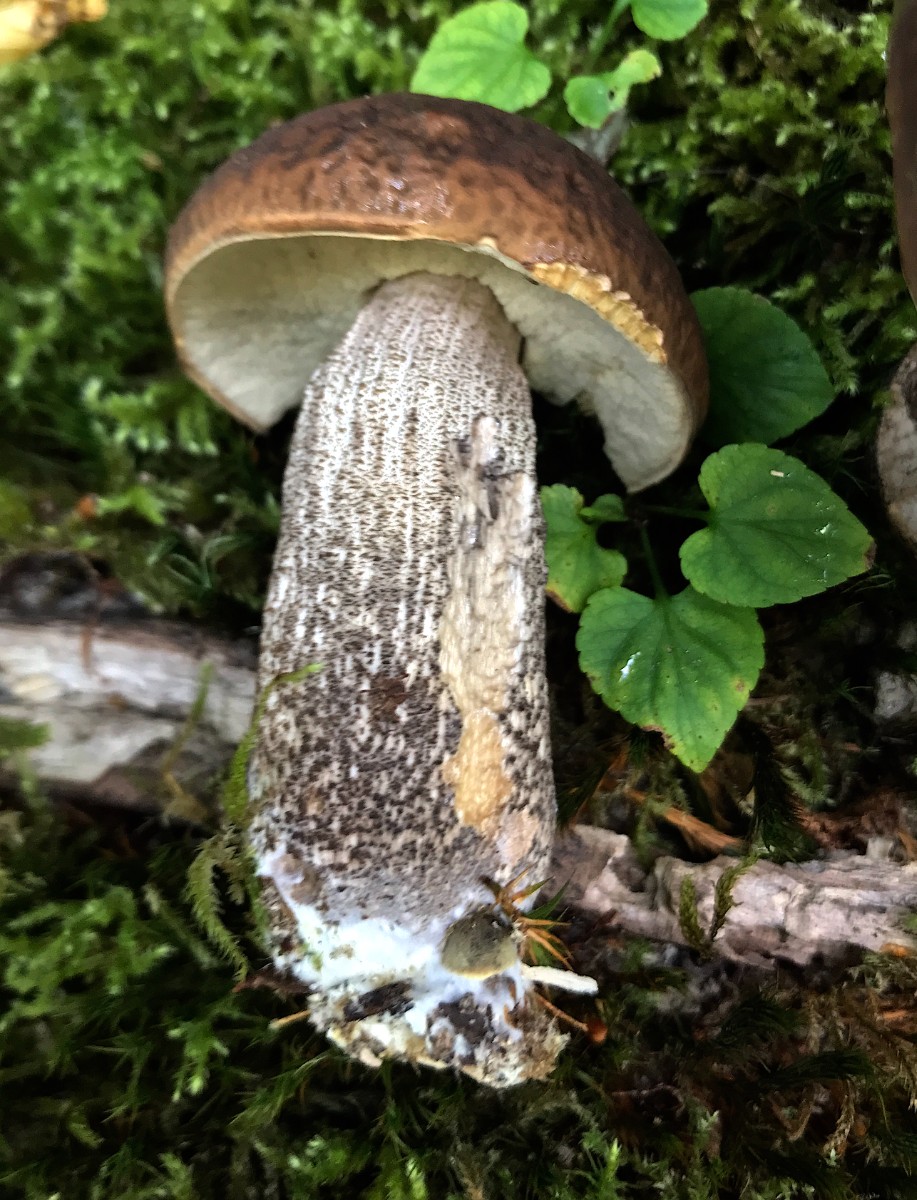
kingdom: Fungi
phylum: Basidiomycota
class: Agaricomycetes
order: Boletales
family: Boletaceae
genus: Leccinellum
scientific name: Leccinellum pseudoscabrum
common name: avnbøg-skælrørhat
